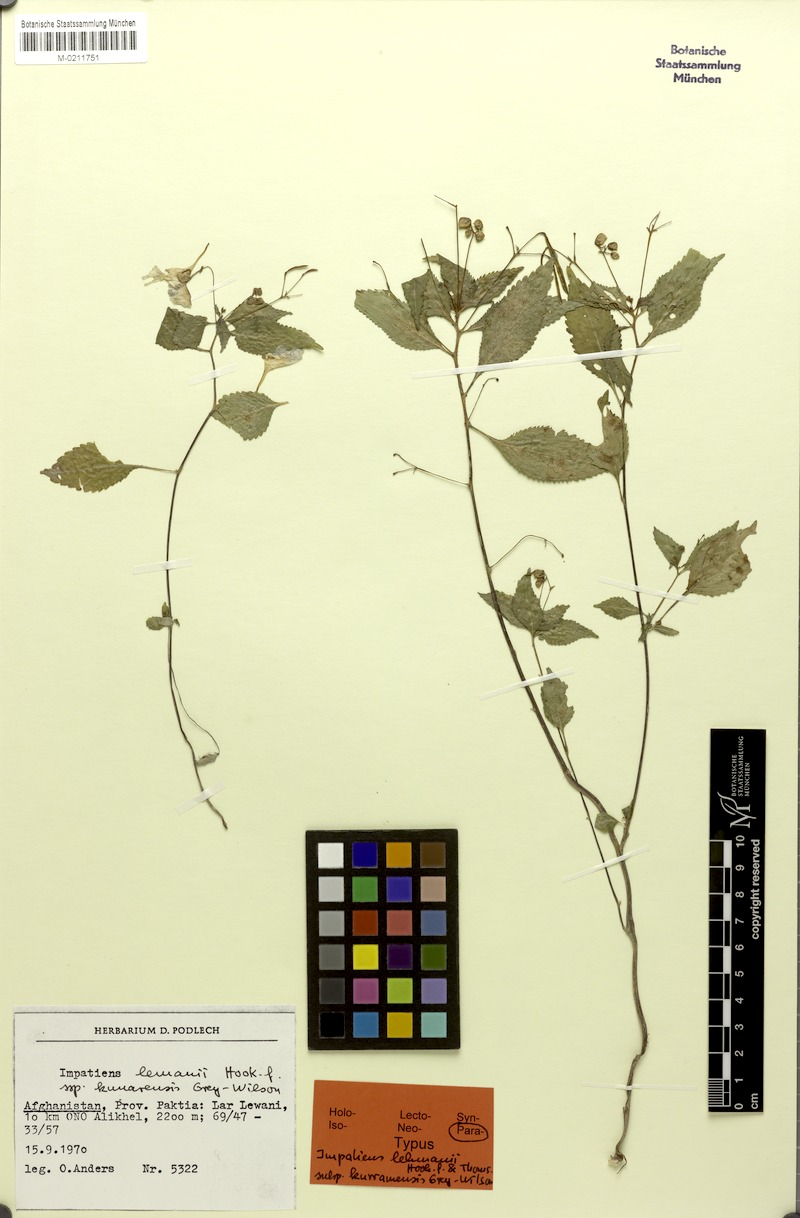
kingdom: Plantae
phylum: Tracheophyta
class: Magnoliopsida
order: Ericales
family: Balsaminaceae
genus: Impatiens
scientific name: Impatiens lemannii
